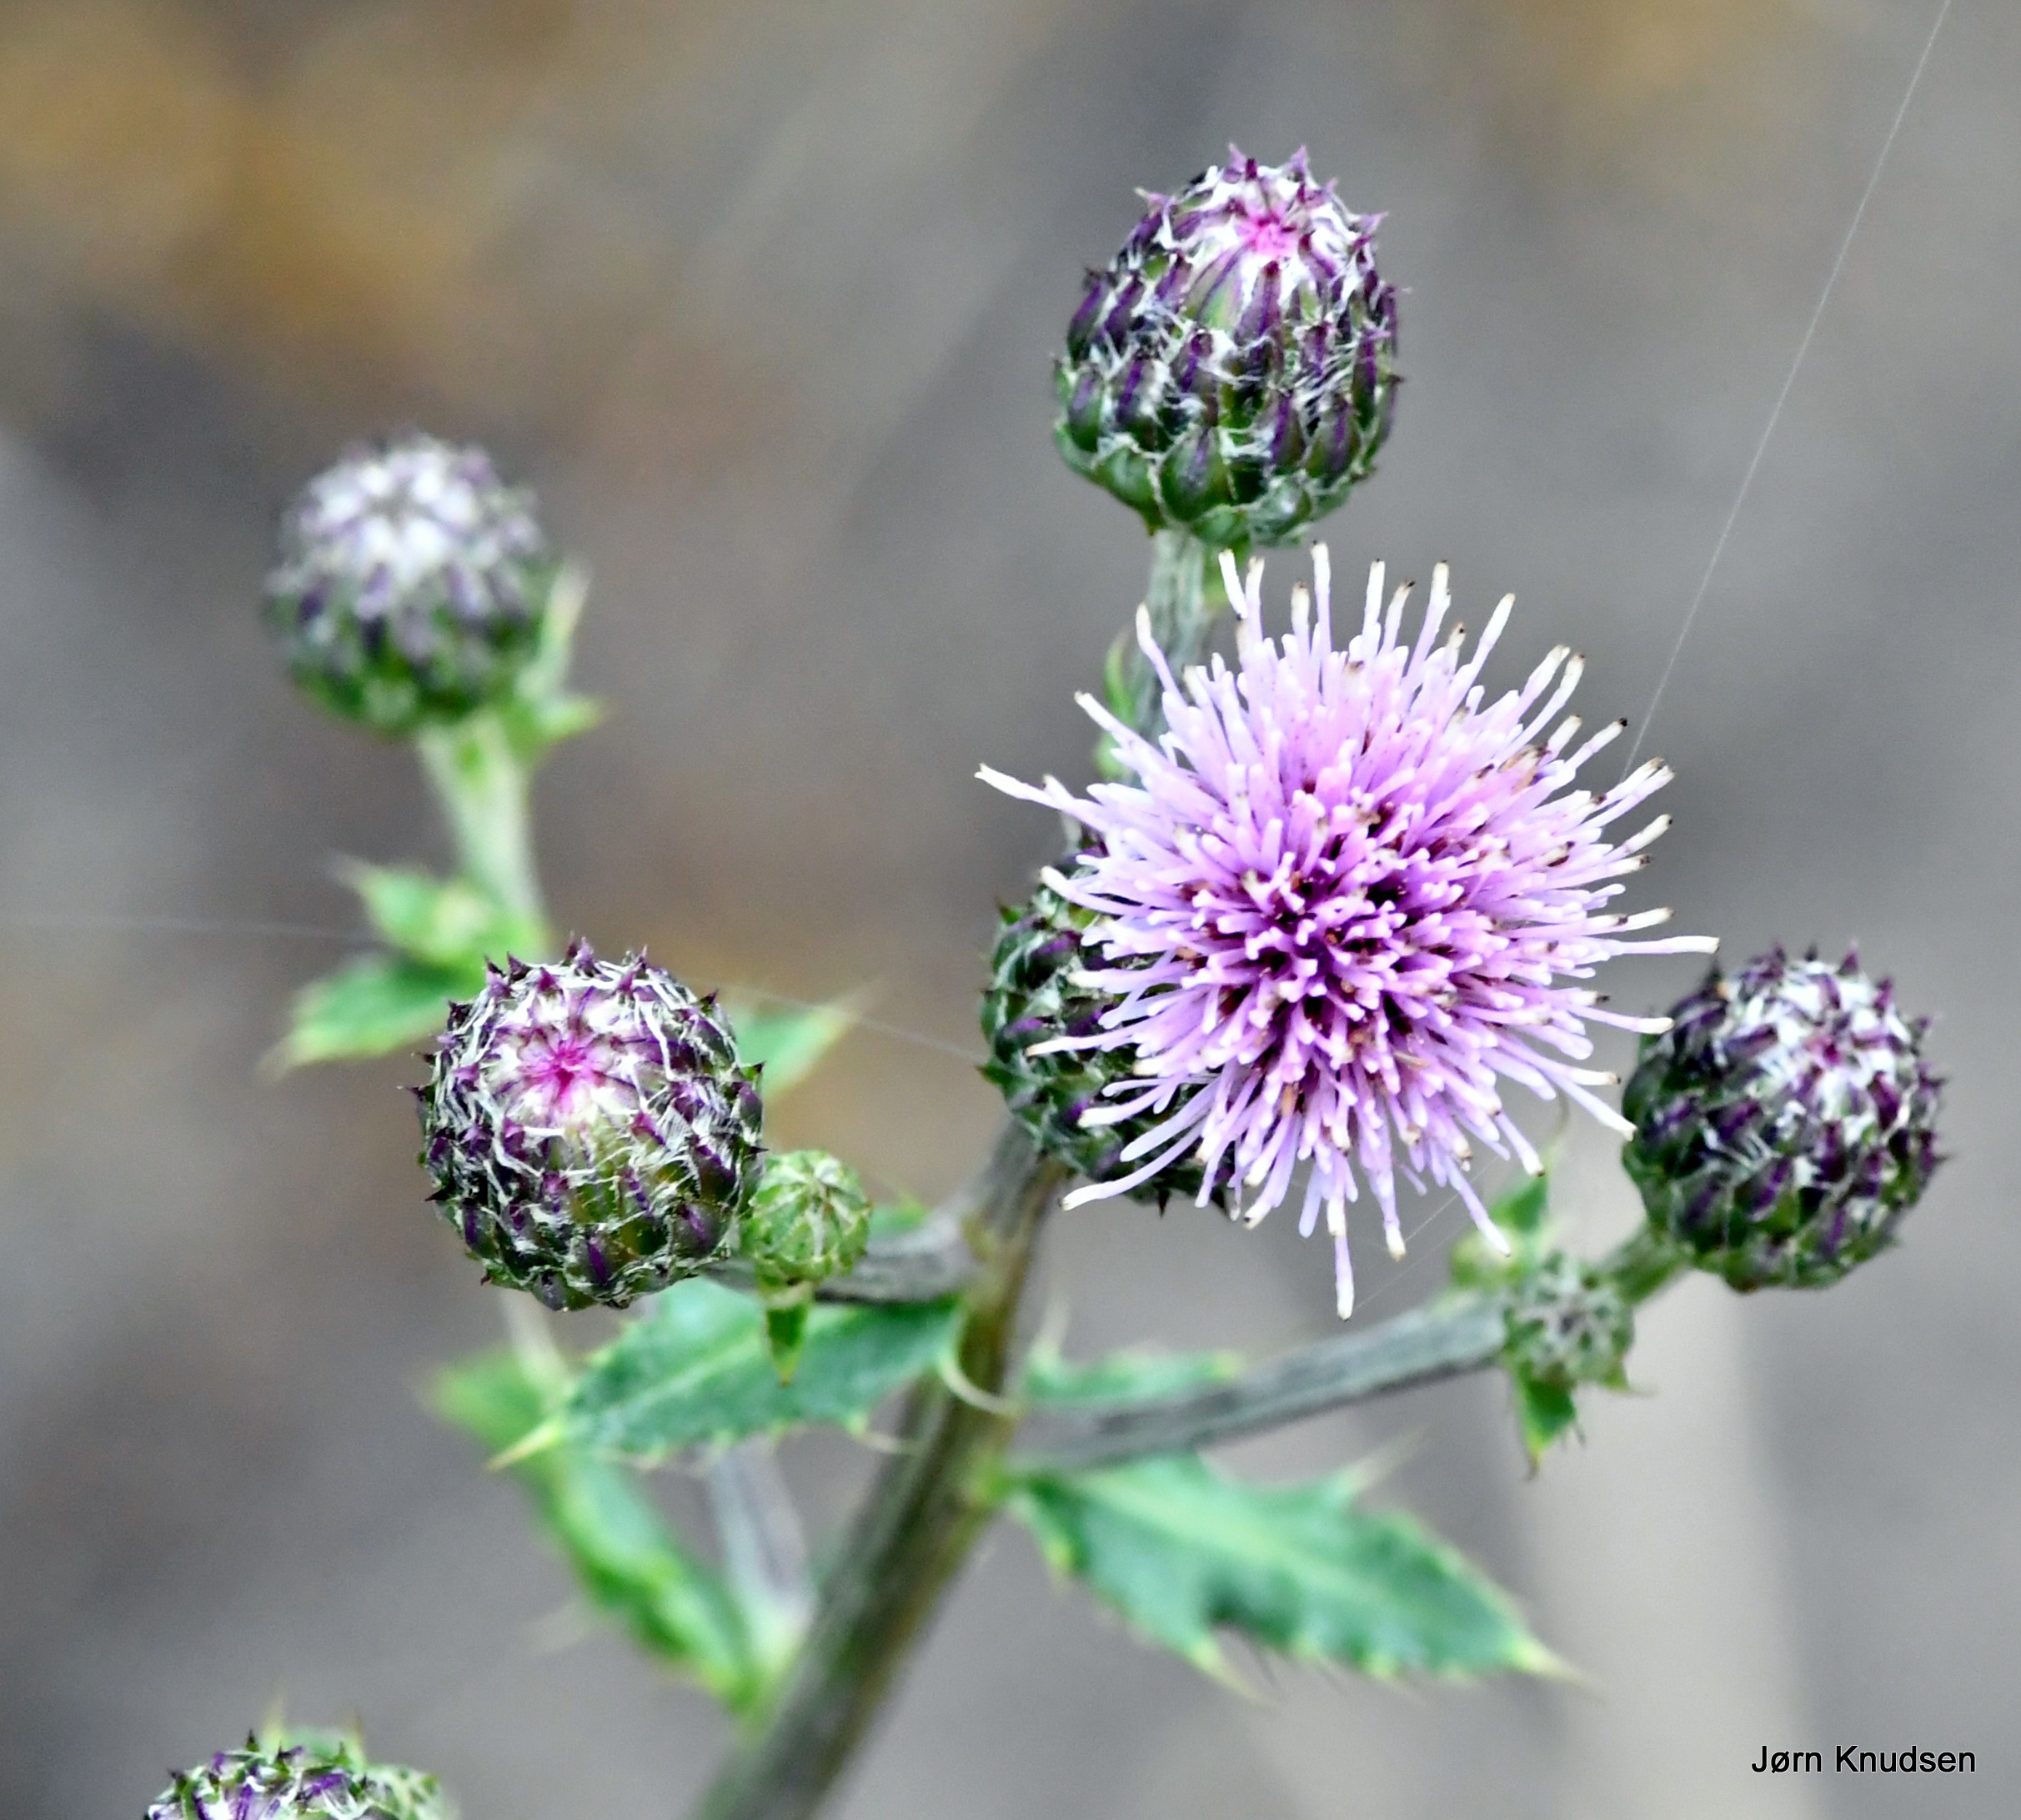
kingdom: Plantae
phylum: Tracheophyta
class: Magnoliopsida
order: Asterales
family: Asteraceae
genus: Cirsium
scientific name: Cirsium arvense
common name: Ager-tidsel
